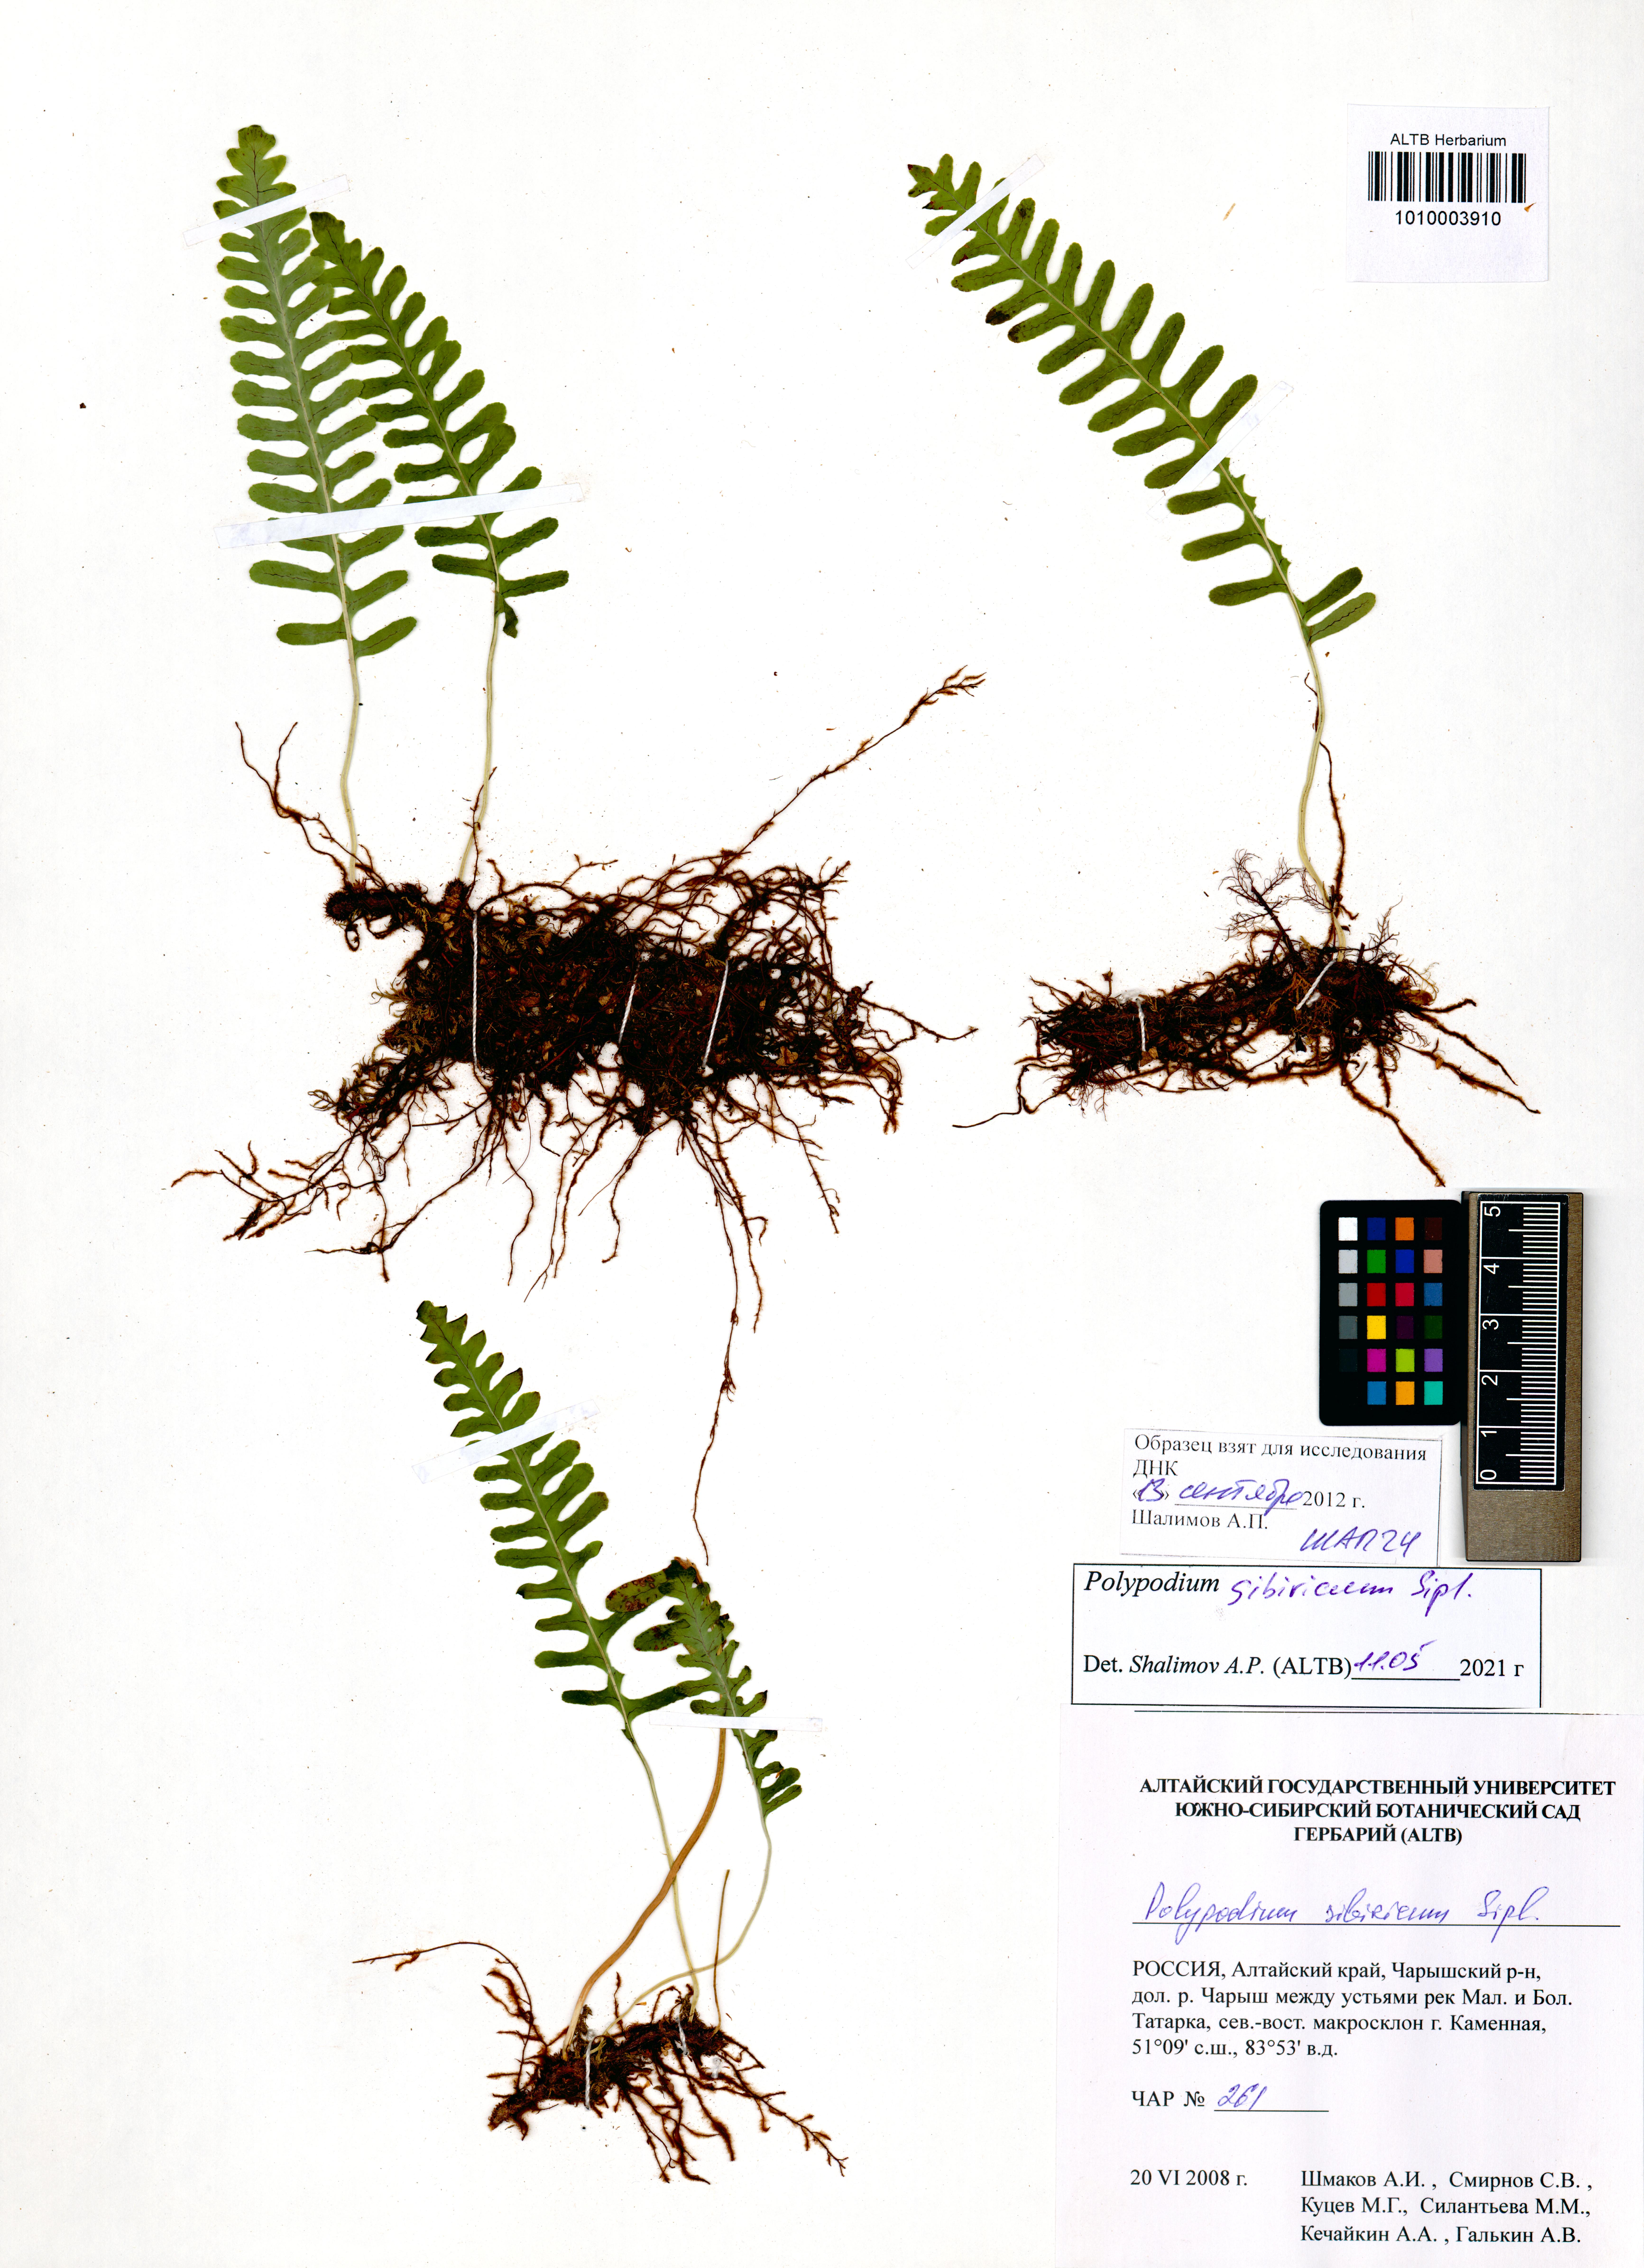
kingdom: Plantae
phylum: Tracheophyta
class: Polypodiopsida
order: Polypodiales
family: Polypodiaceae
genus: Polypodium
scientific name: Polypodium sibiricum
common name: Siberian polypody
